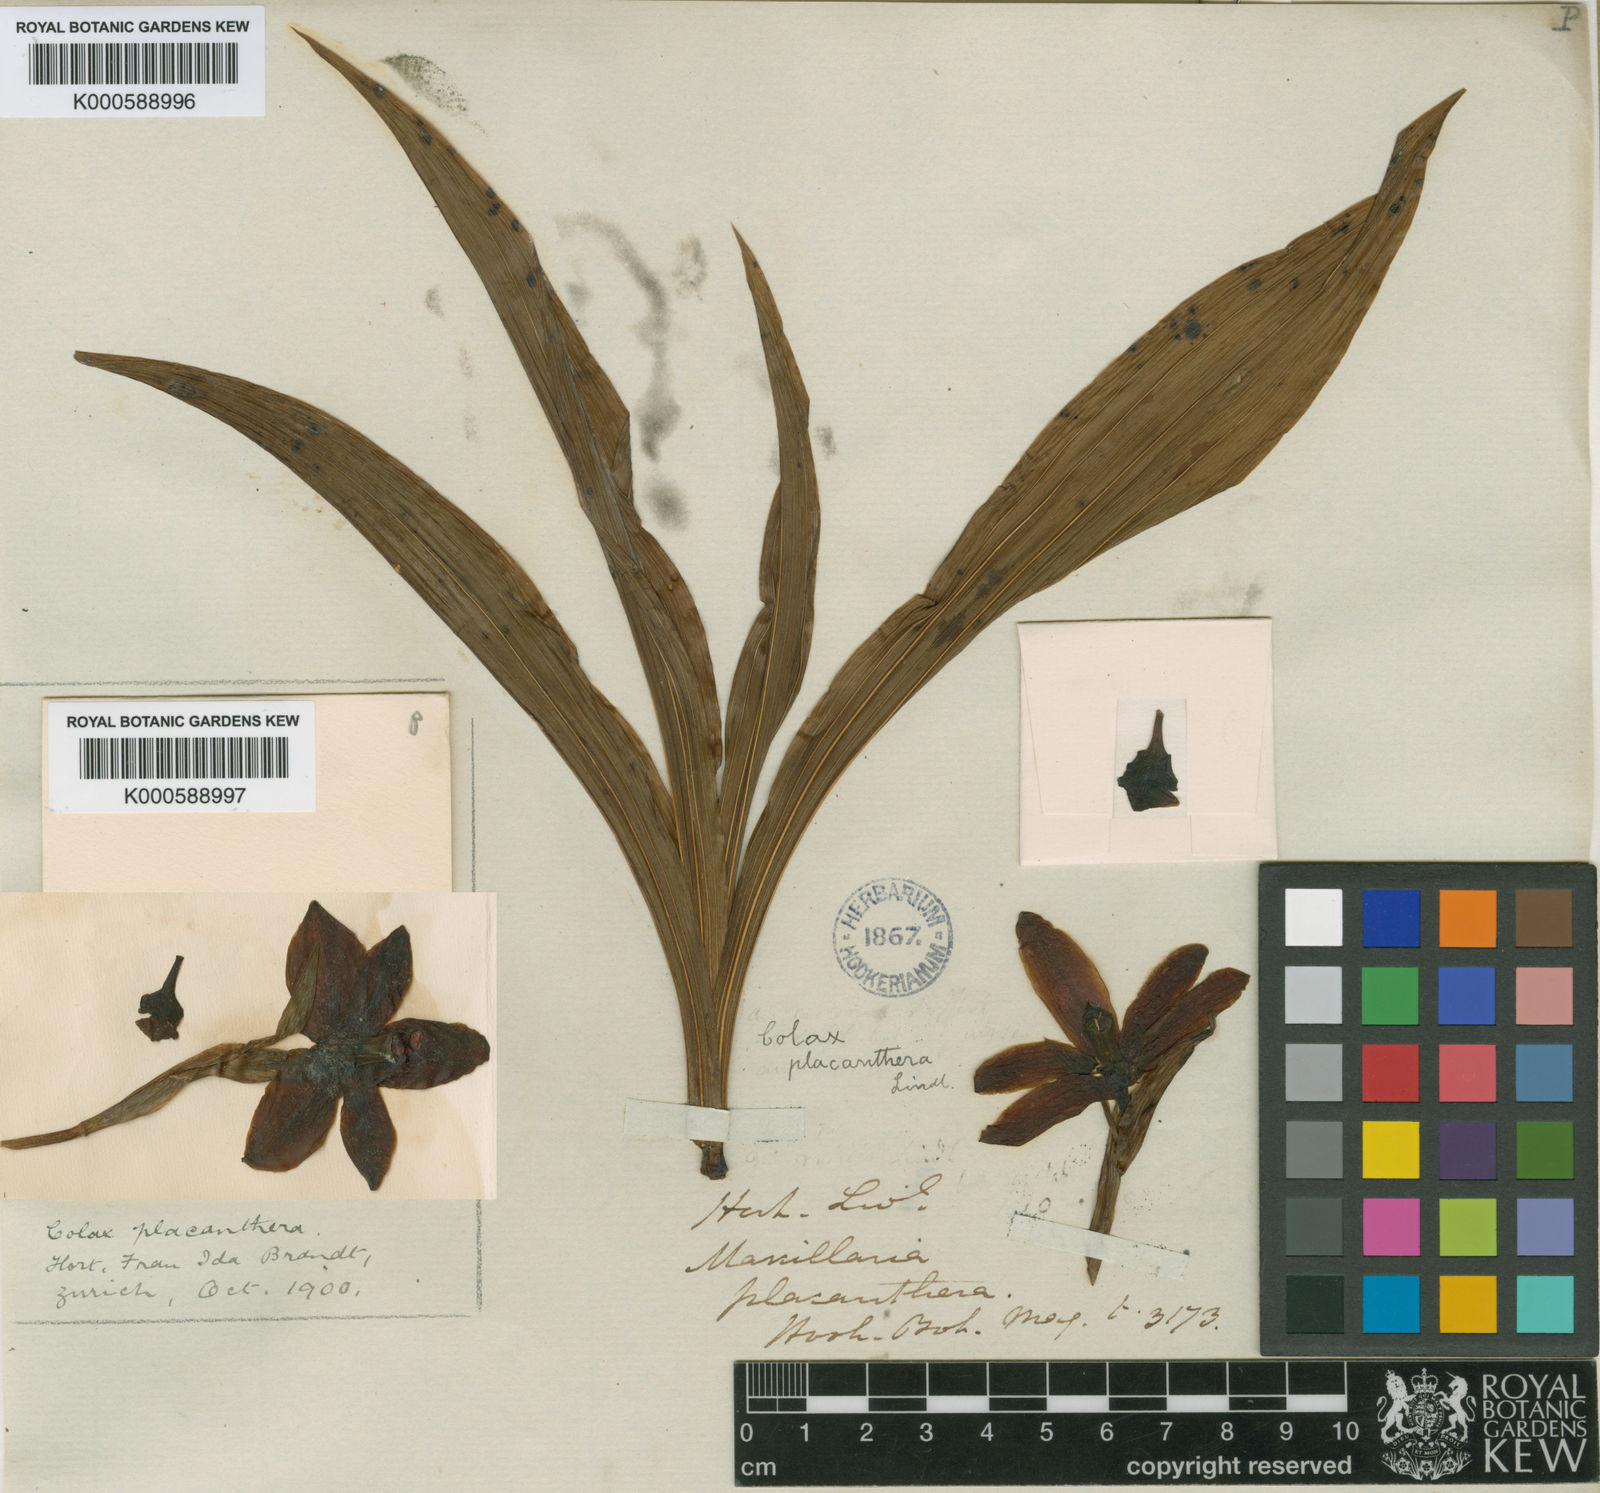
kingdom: Plantae
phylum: Tracheophyta
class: Liliopsida
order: Asparagales
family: Orchidaceae
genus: Pabstia
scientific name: Pabstia placanthera
